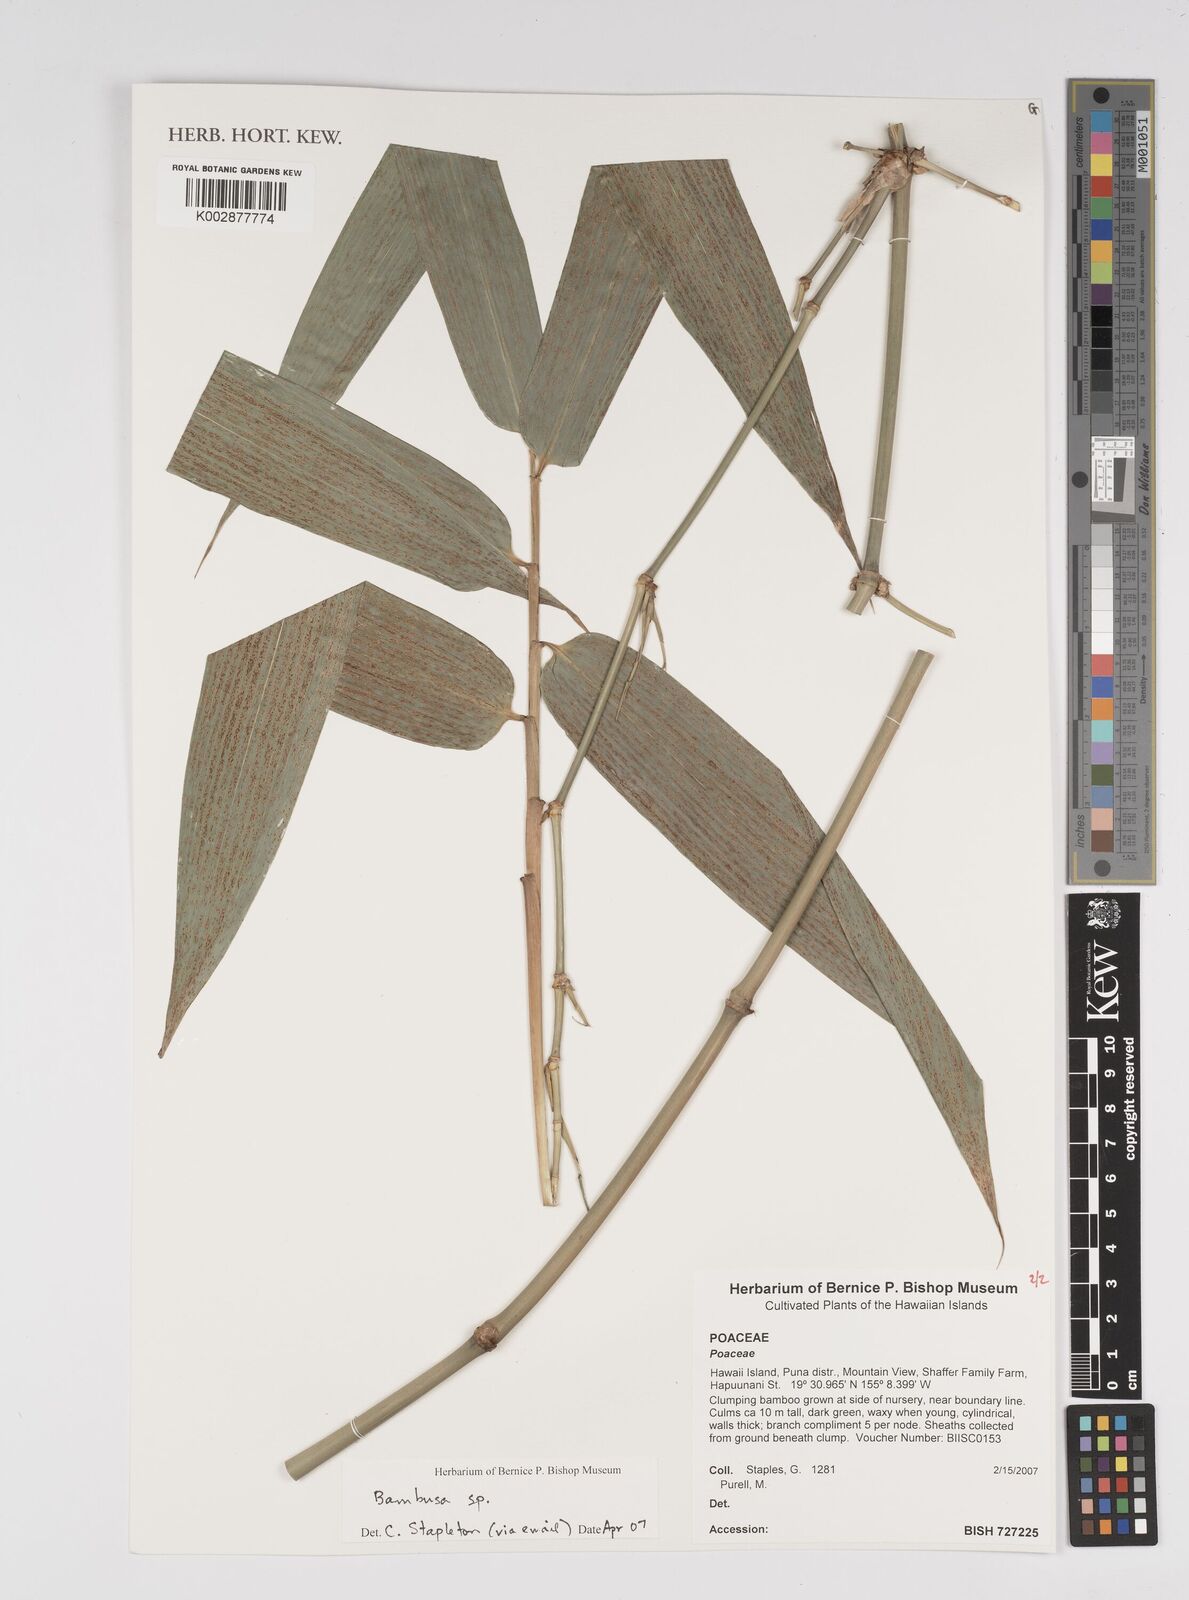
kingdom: Plantae
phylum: Tracheophyta
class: Liliopsida
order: Poales
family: Poaceae
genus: Bambusa
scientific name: Bambusa
